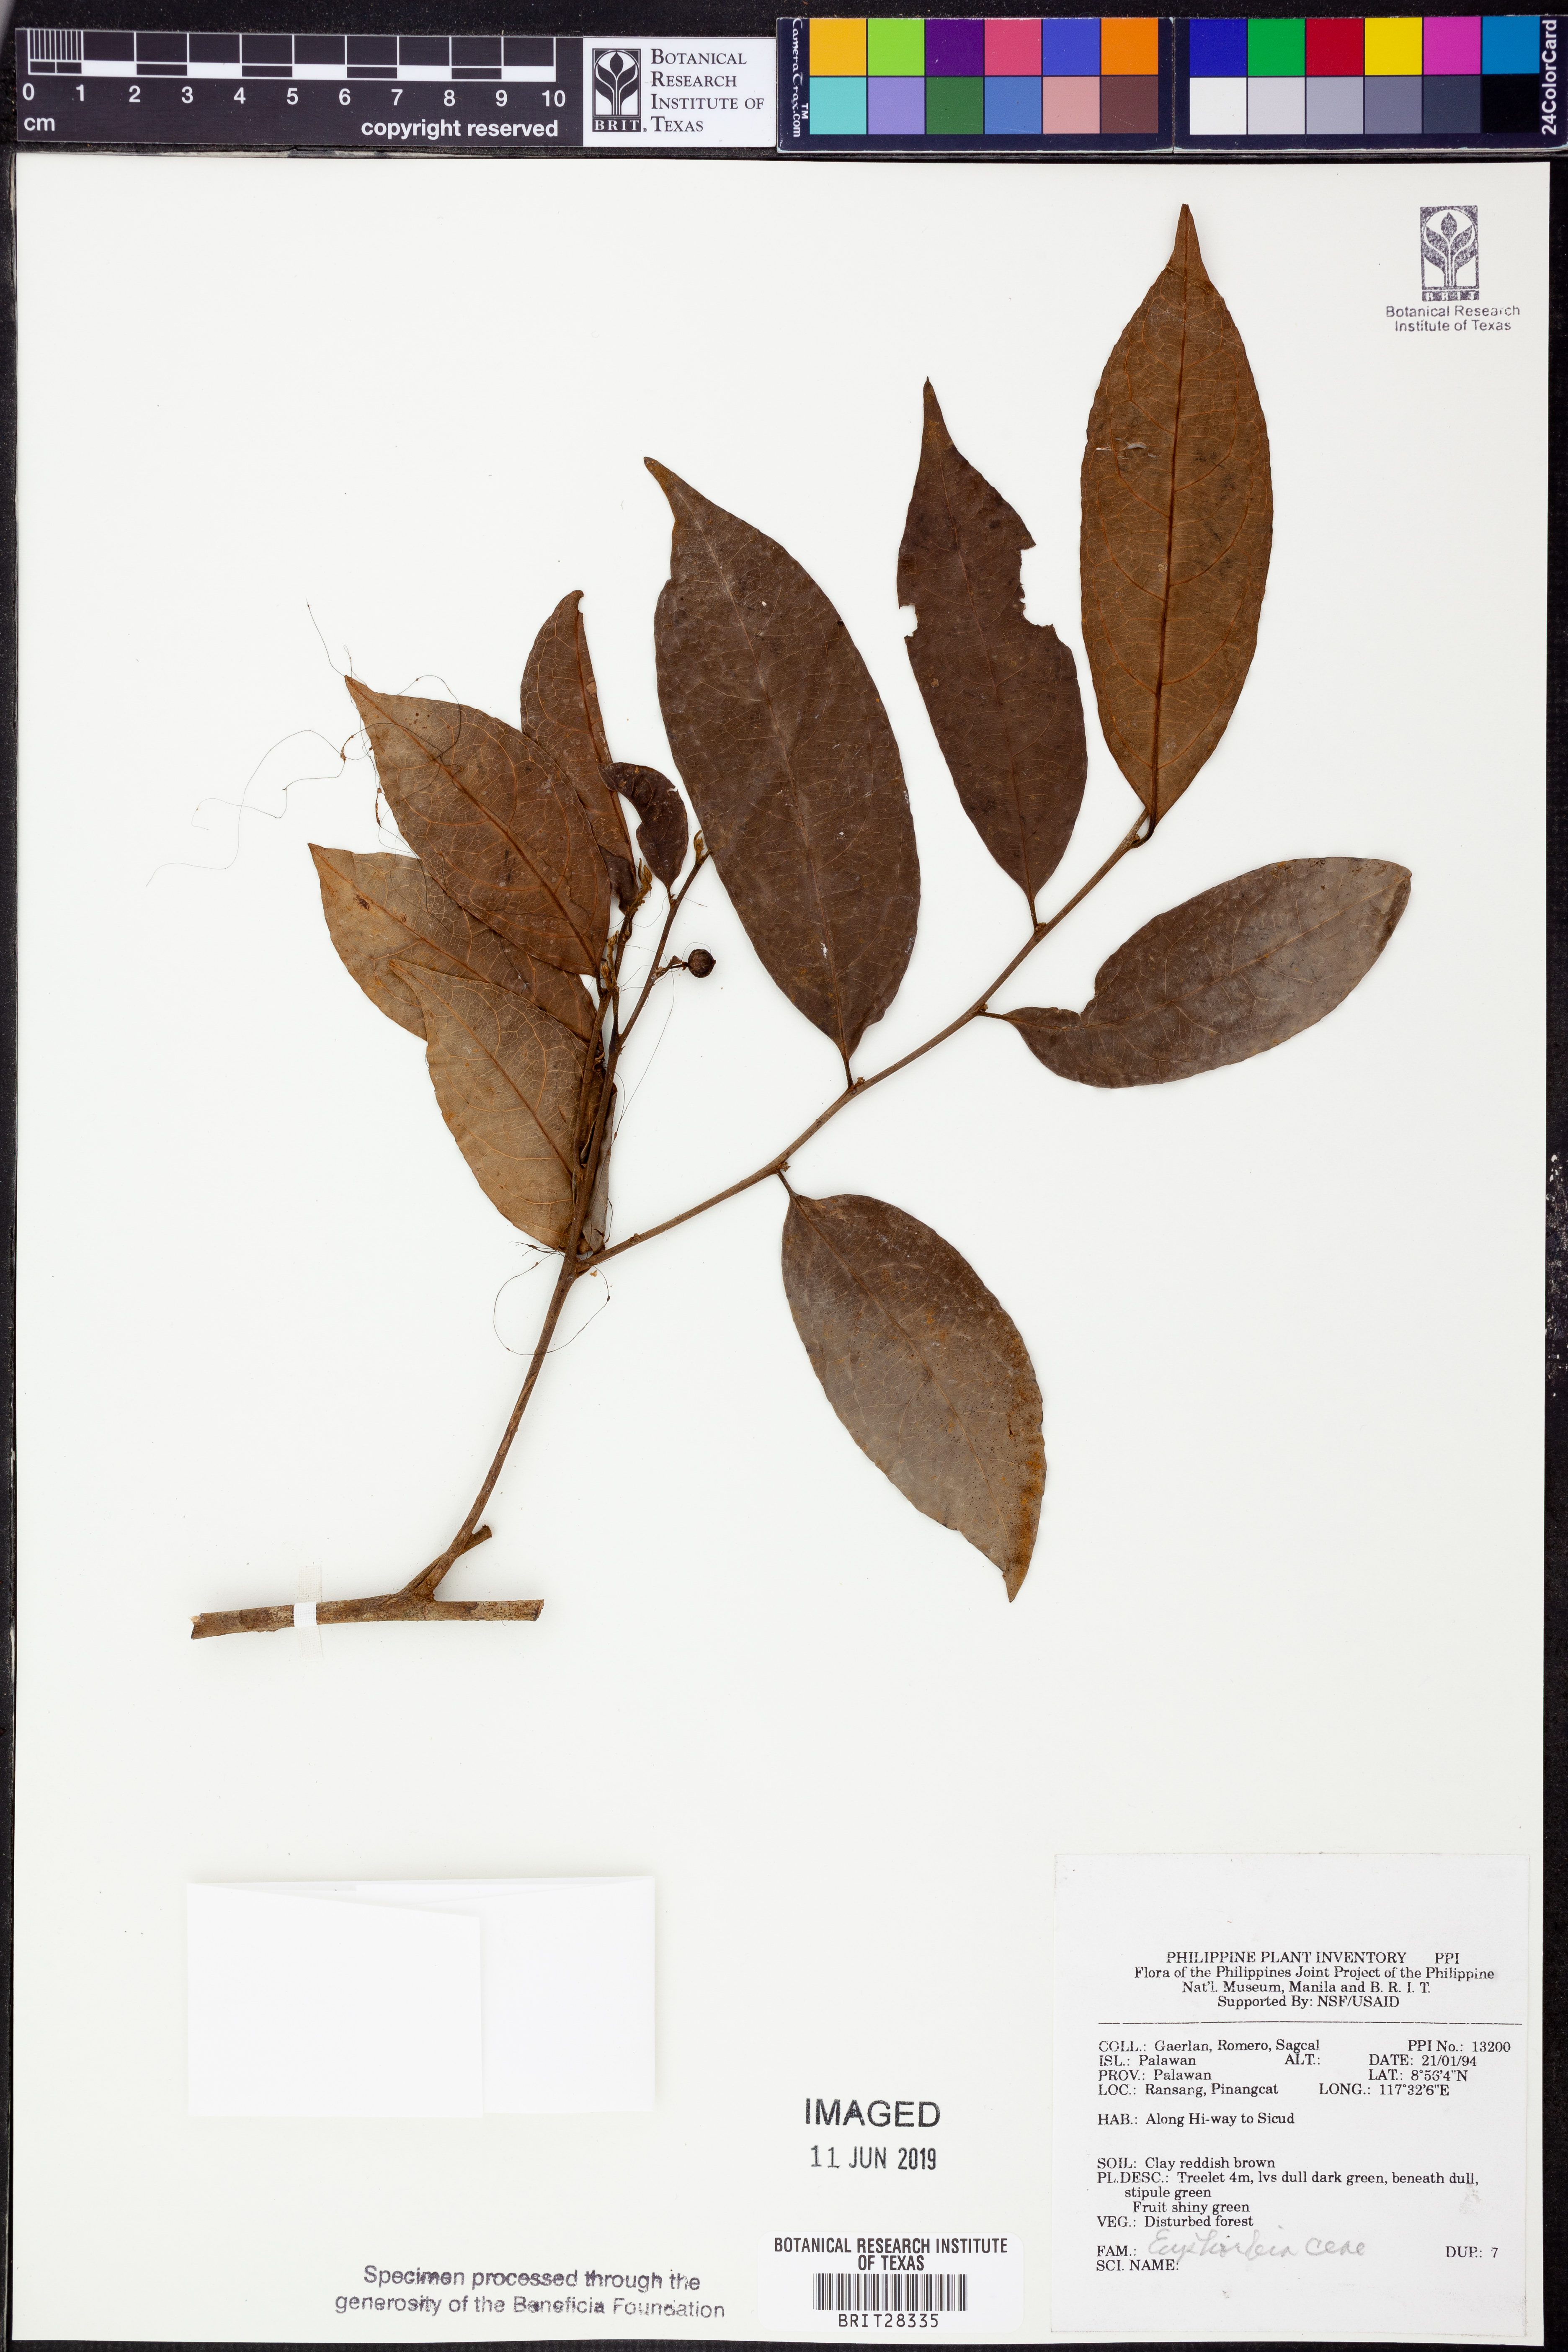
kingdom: Plantae
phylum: Tracheophyta
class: Magnoliopsida
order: Malpighiales
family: Euphorbiaceae
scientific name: Euphorbiaceae
